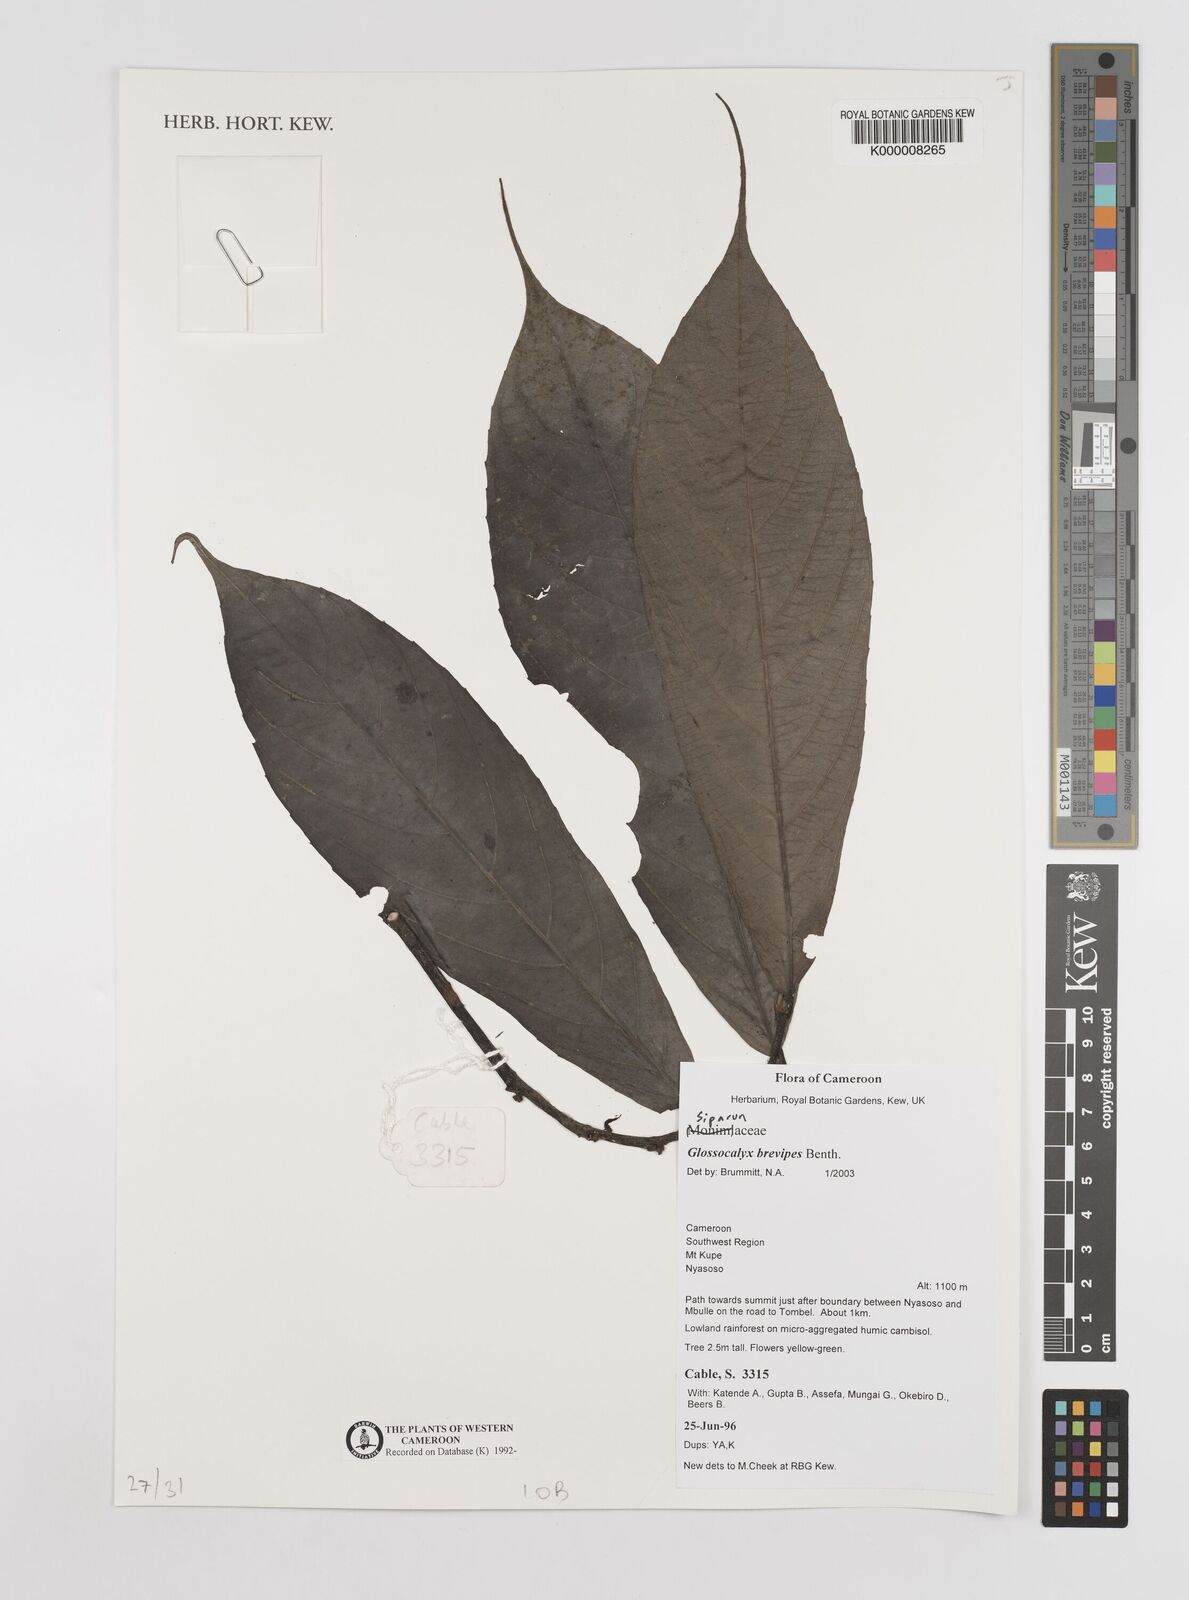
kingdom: Plantae
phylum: Tracheophyta
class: Magnoliopsida
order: Laurales
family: Siparunaceae
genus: Glossocalyx
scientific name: Glossocalyx brevipes
